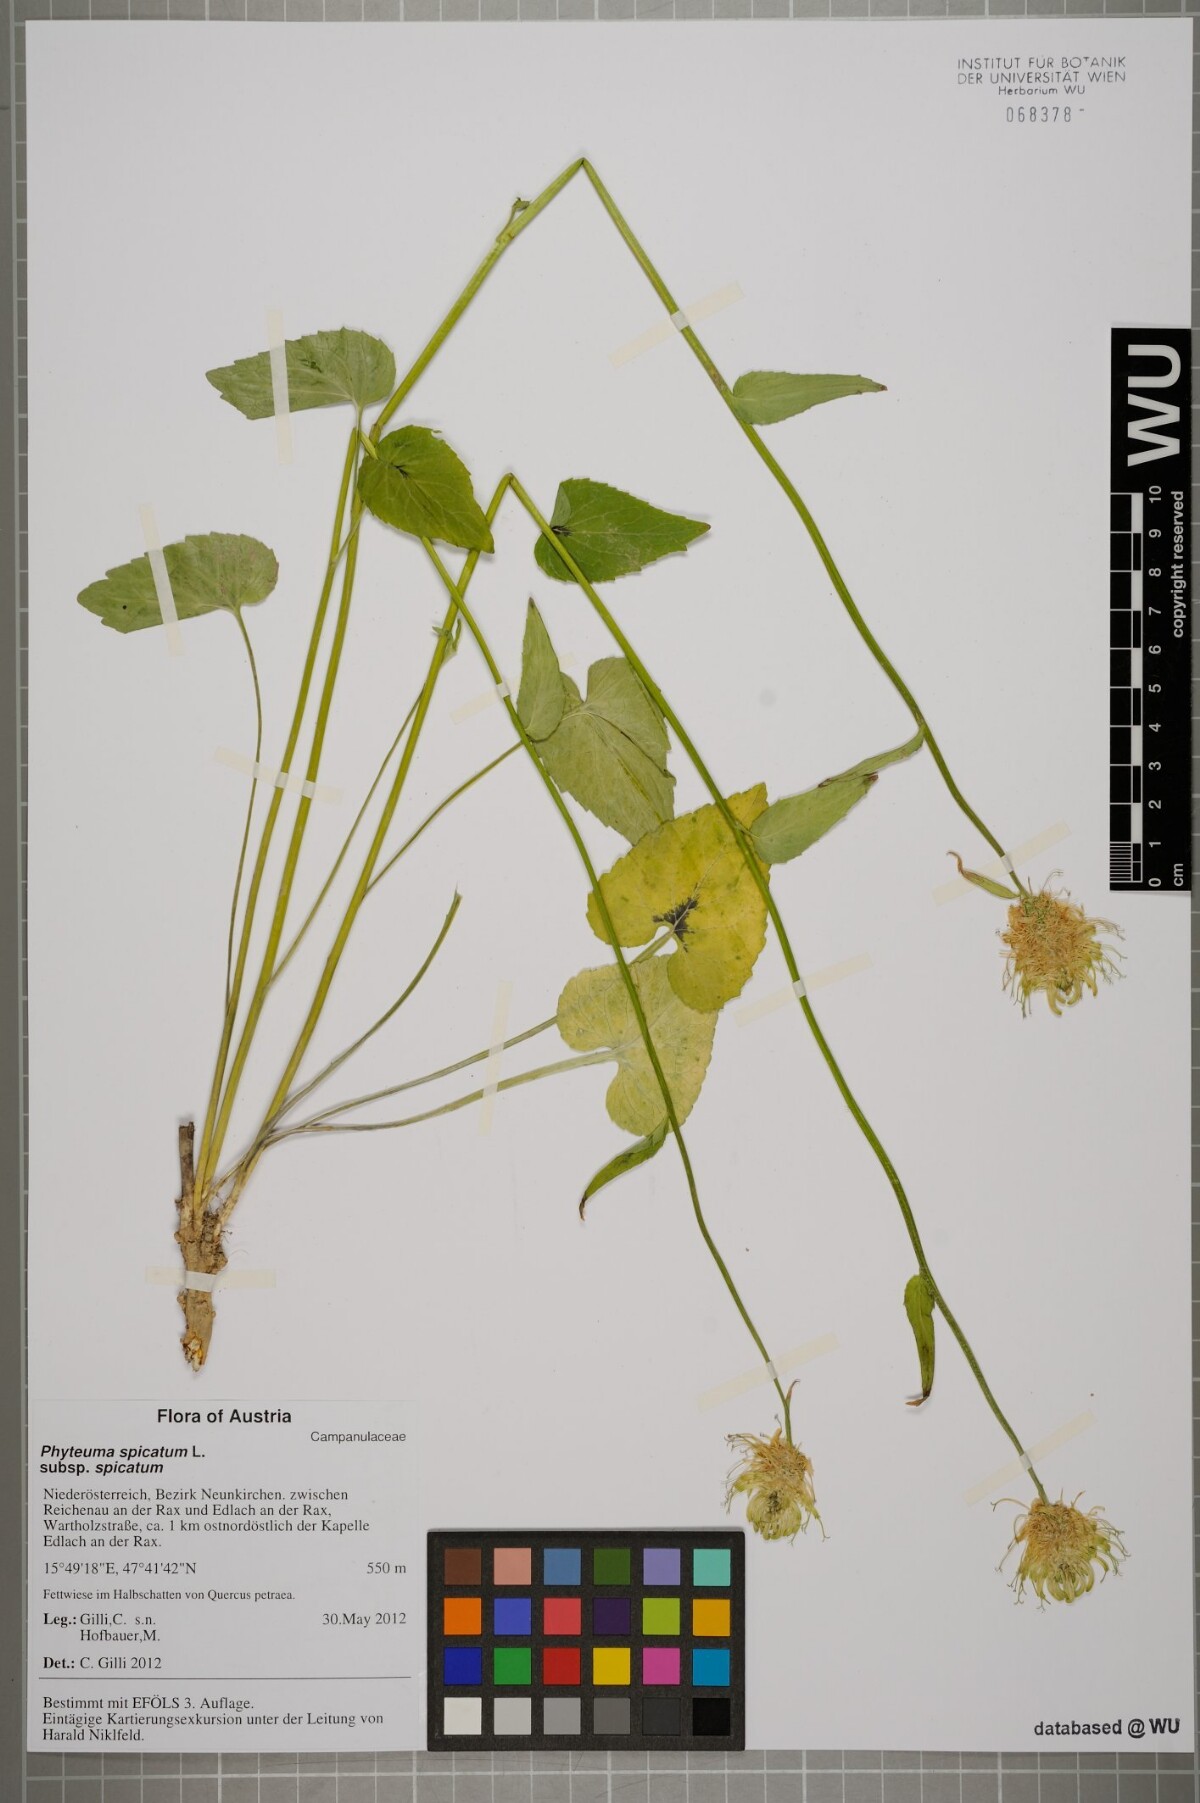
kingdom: Plantae
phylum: Tracheophyta
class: Magnoliopsida
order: Asterales
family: Campanulaceae
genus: Phyteuma
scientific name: Phyteuma spicatum
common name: Spiked rampion
